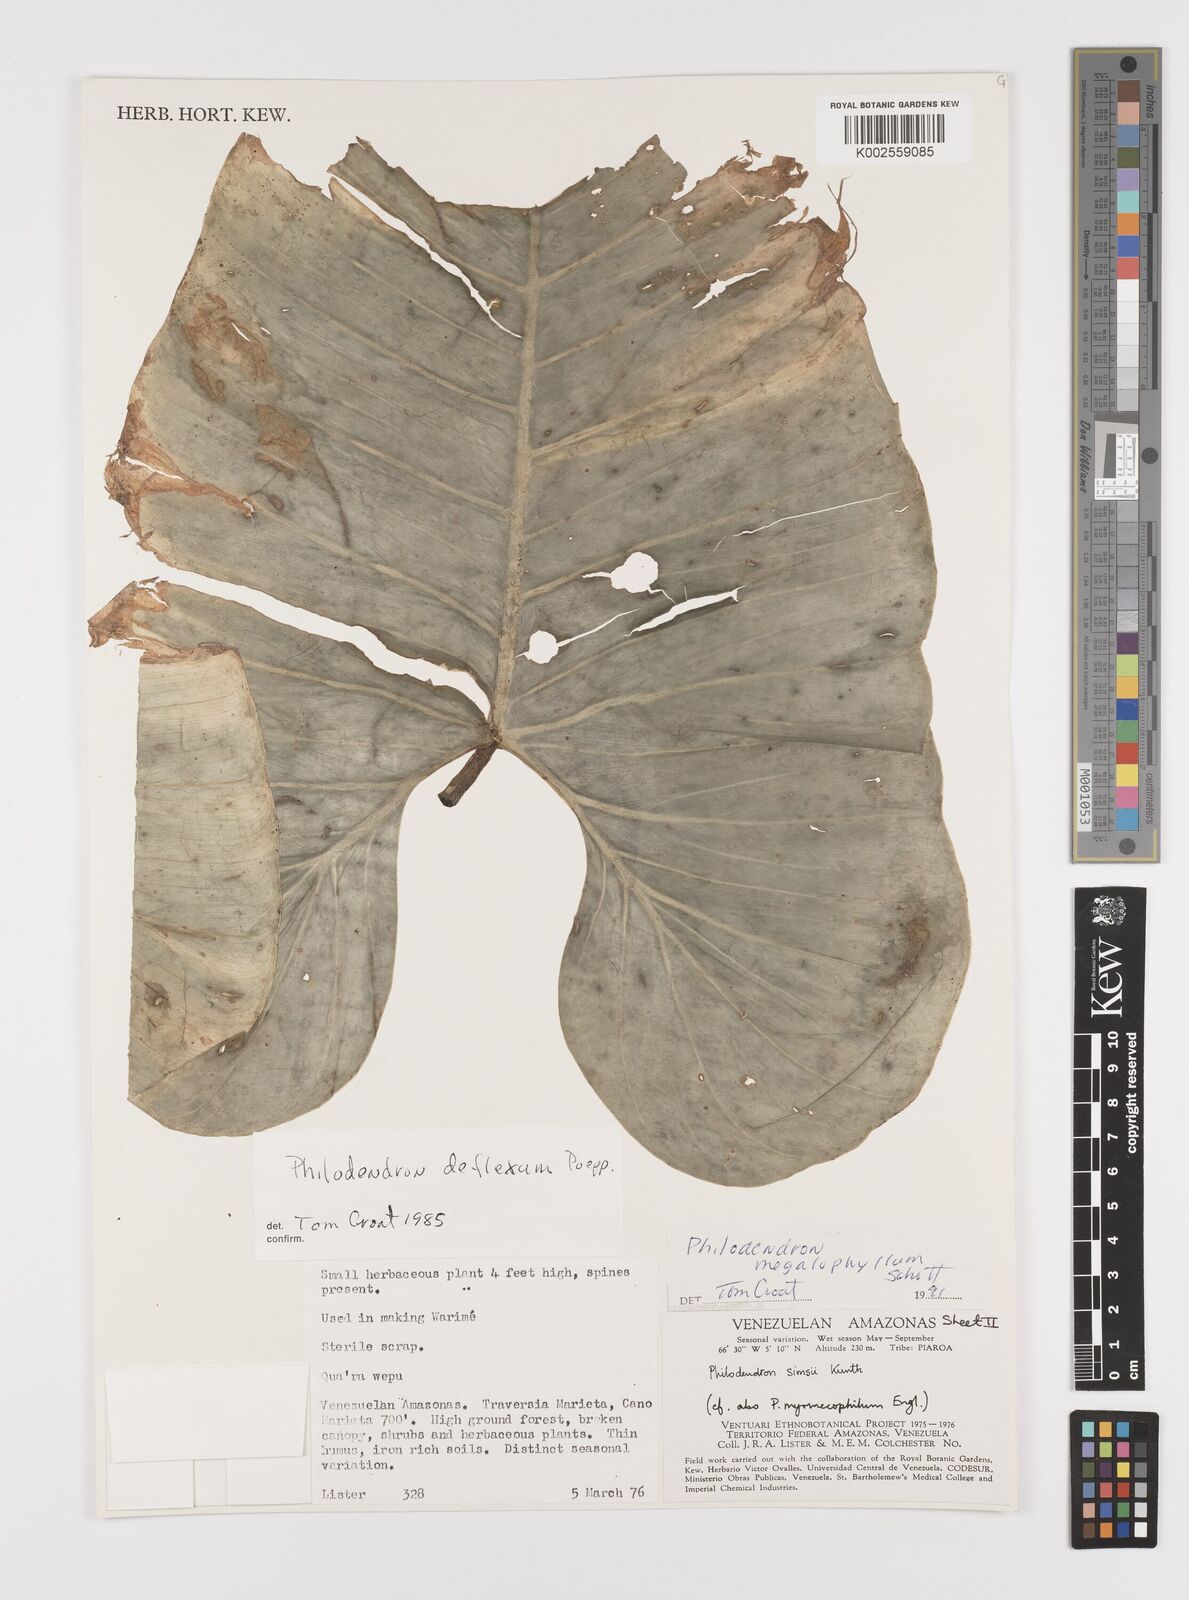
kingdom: Plantae
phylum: Tracheophyta
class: Liliopsida
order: Alismatales
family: Araceae
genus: Philodendron
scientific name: Philodendron megalophyllum
